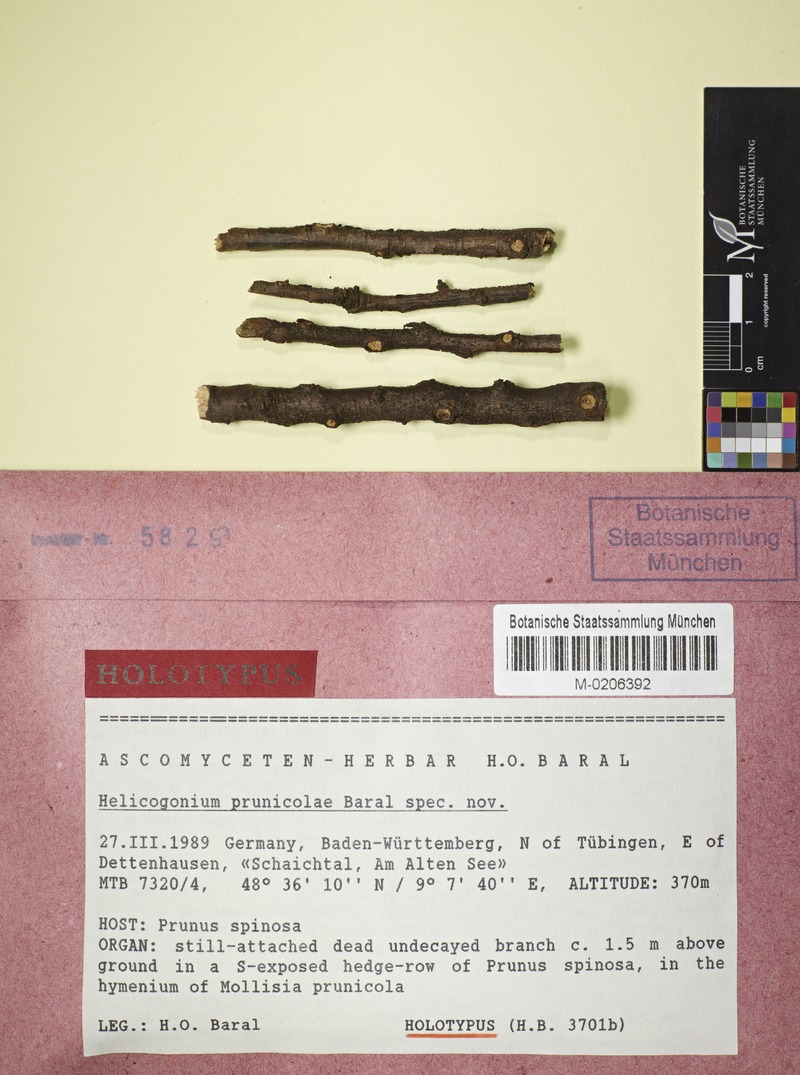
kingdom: Fungi
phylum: Ascomycota
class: Leotiomycetes
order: Phacidiales
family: Helicogoniaceae
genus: Helicogonium
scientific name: Helicogonium prunicolae
